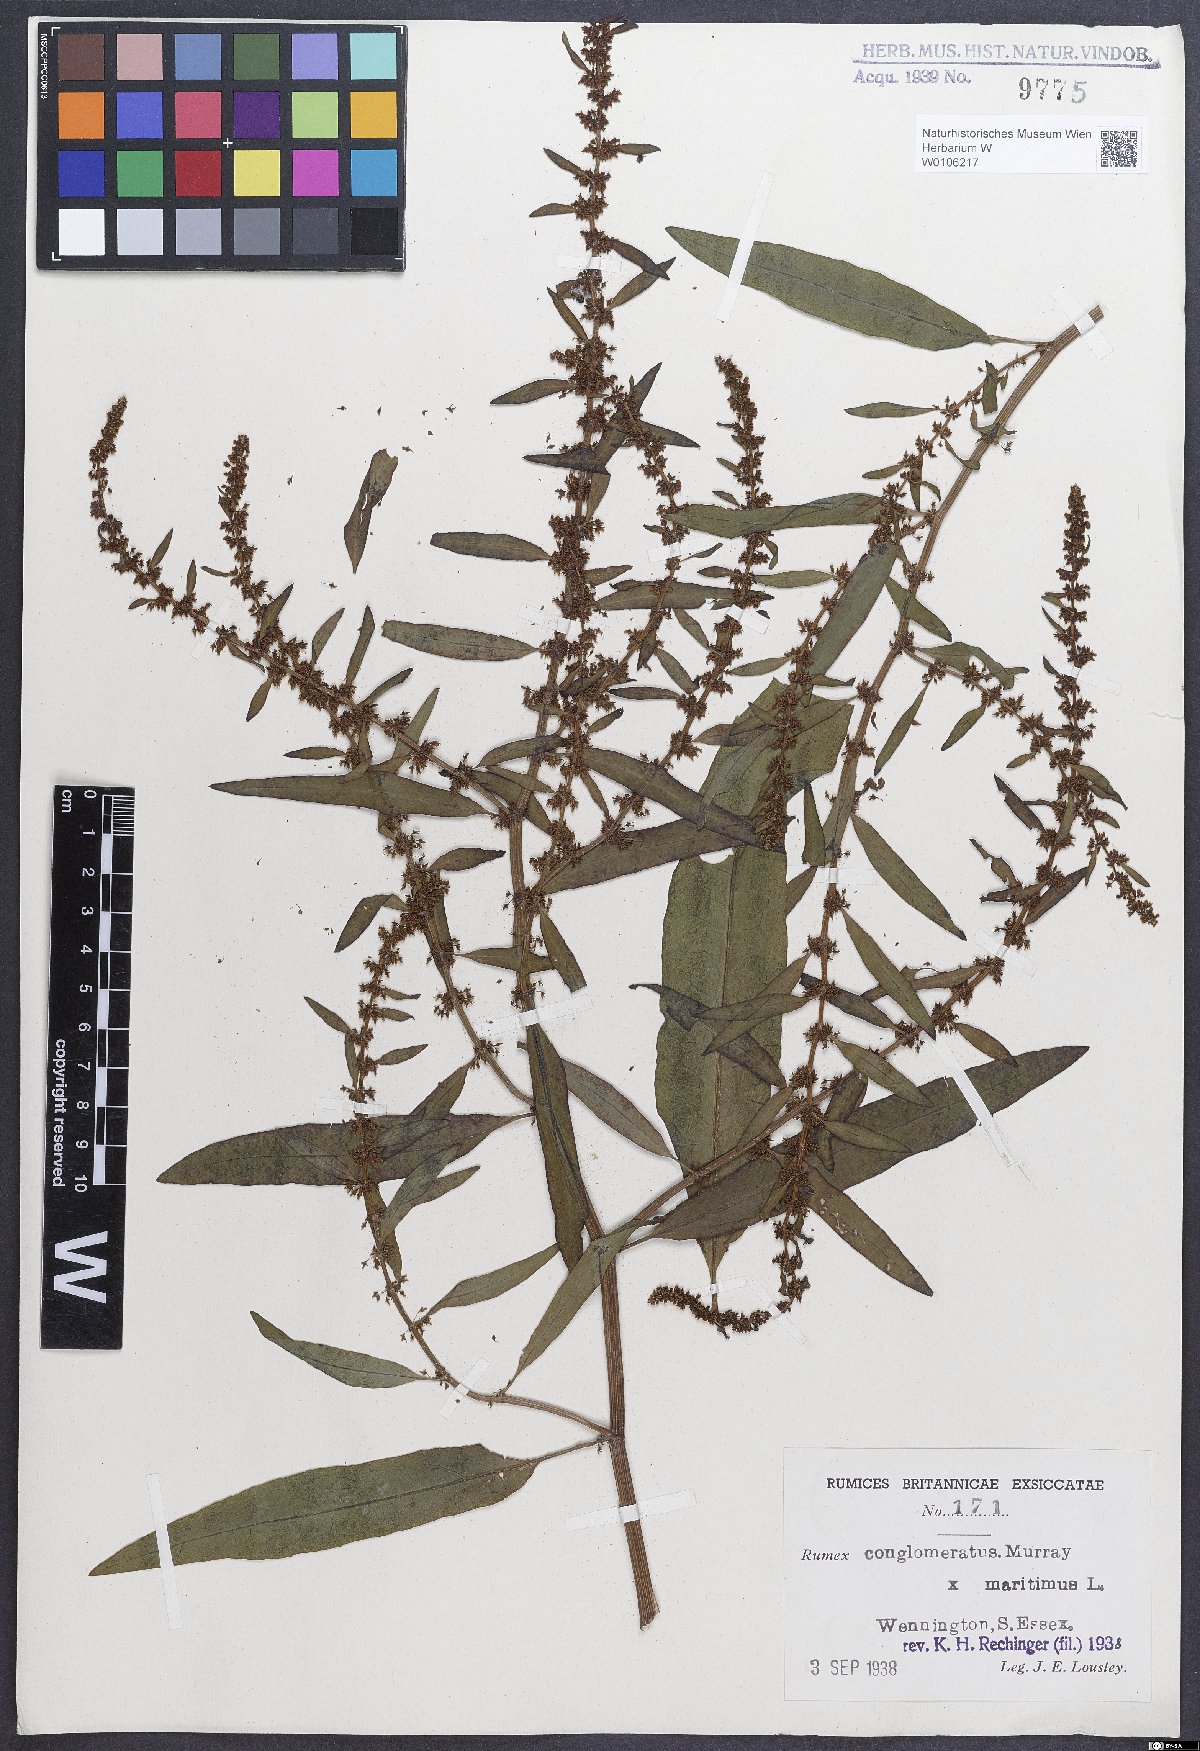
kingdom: Plantae
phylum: Tracheophyta
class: Magnoliopsida
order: Caryophyllales
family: Polygonaceae
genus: Rumex
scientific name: Rumex
